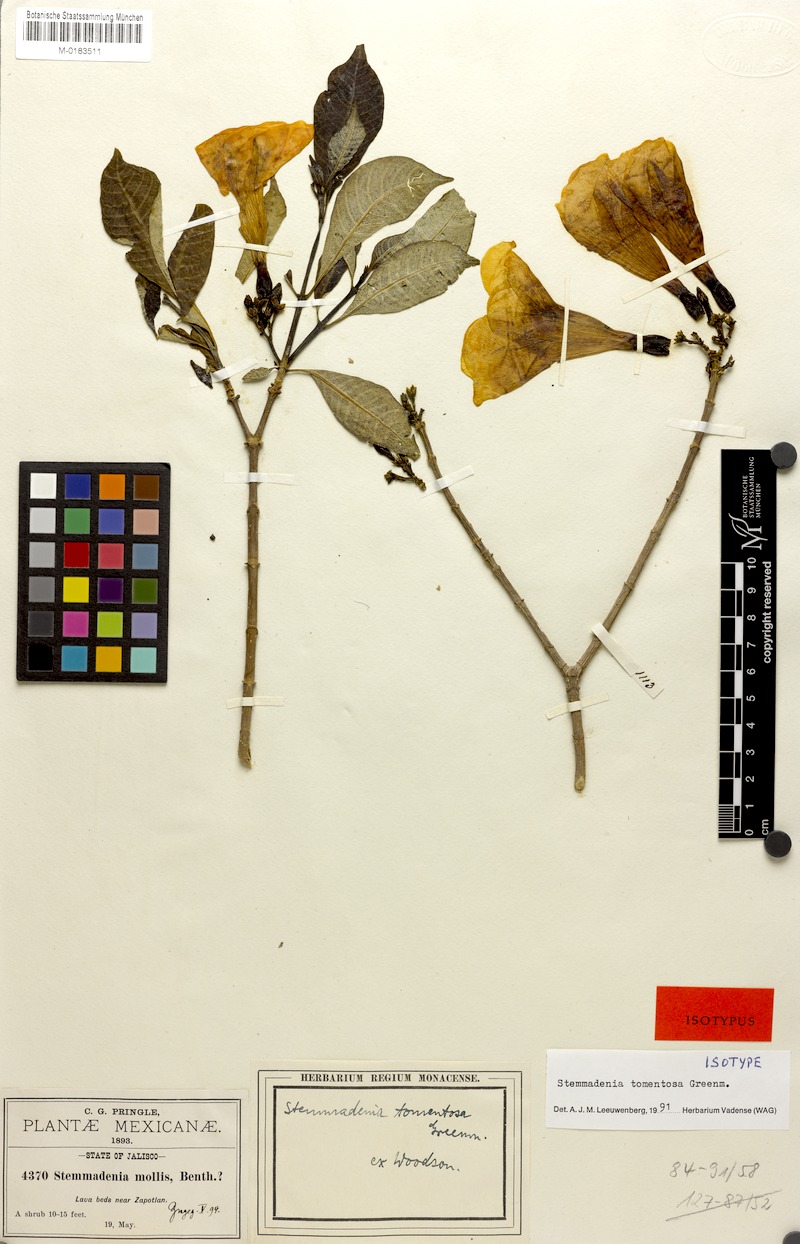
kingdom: Plantae
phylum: Tracheophyta
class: Magnoliopsida
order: Gentianales
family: Apocynaceae
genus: Tabernaemontana
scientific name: Tabernaemontana tomentosa
